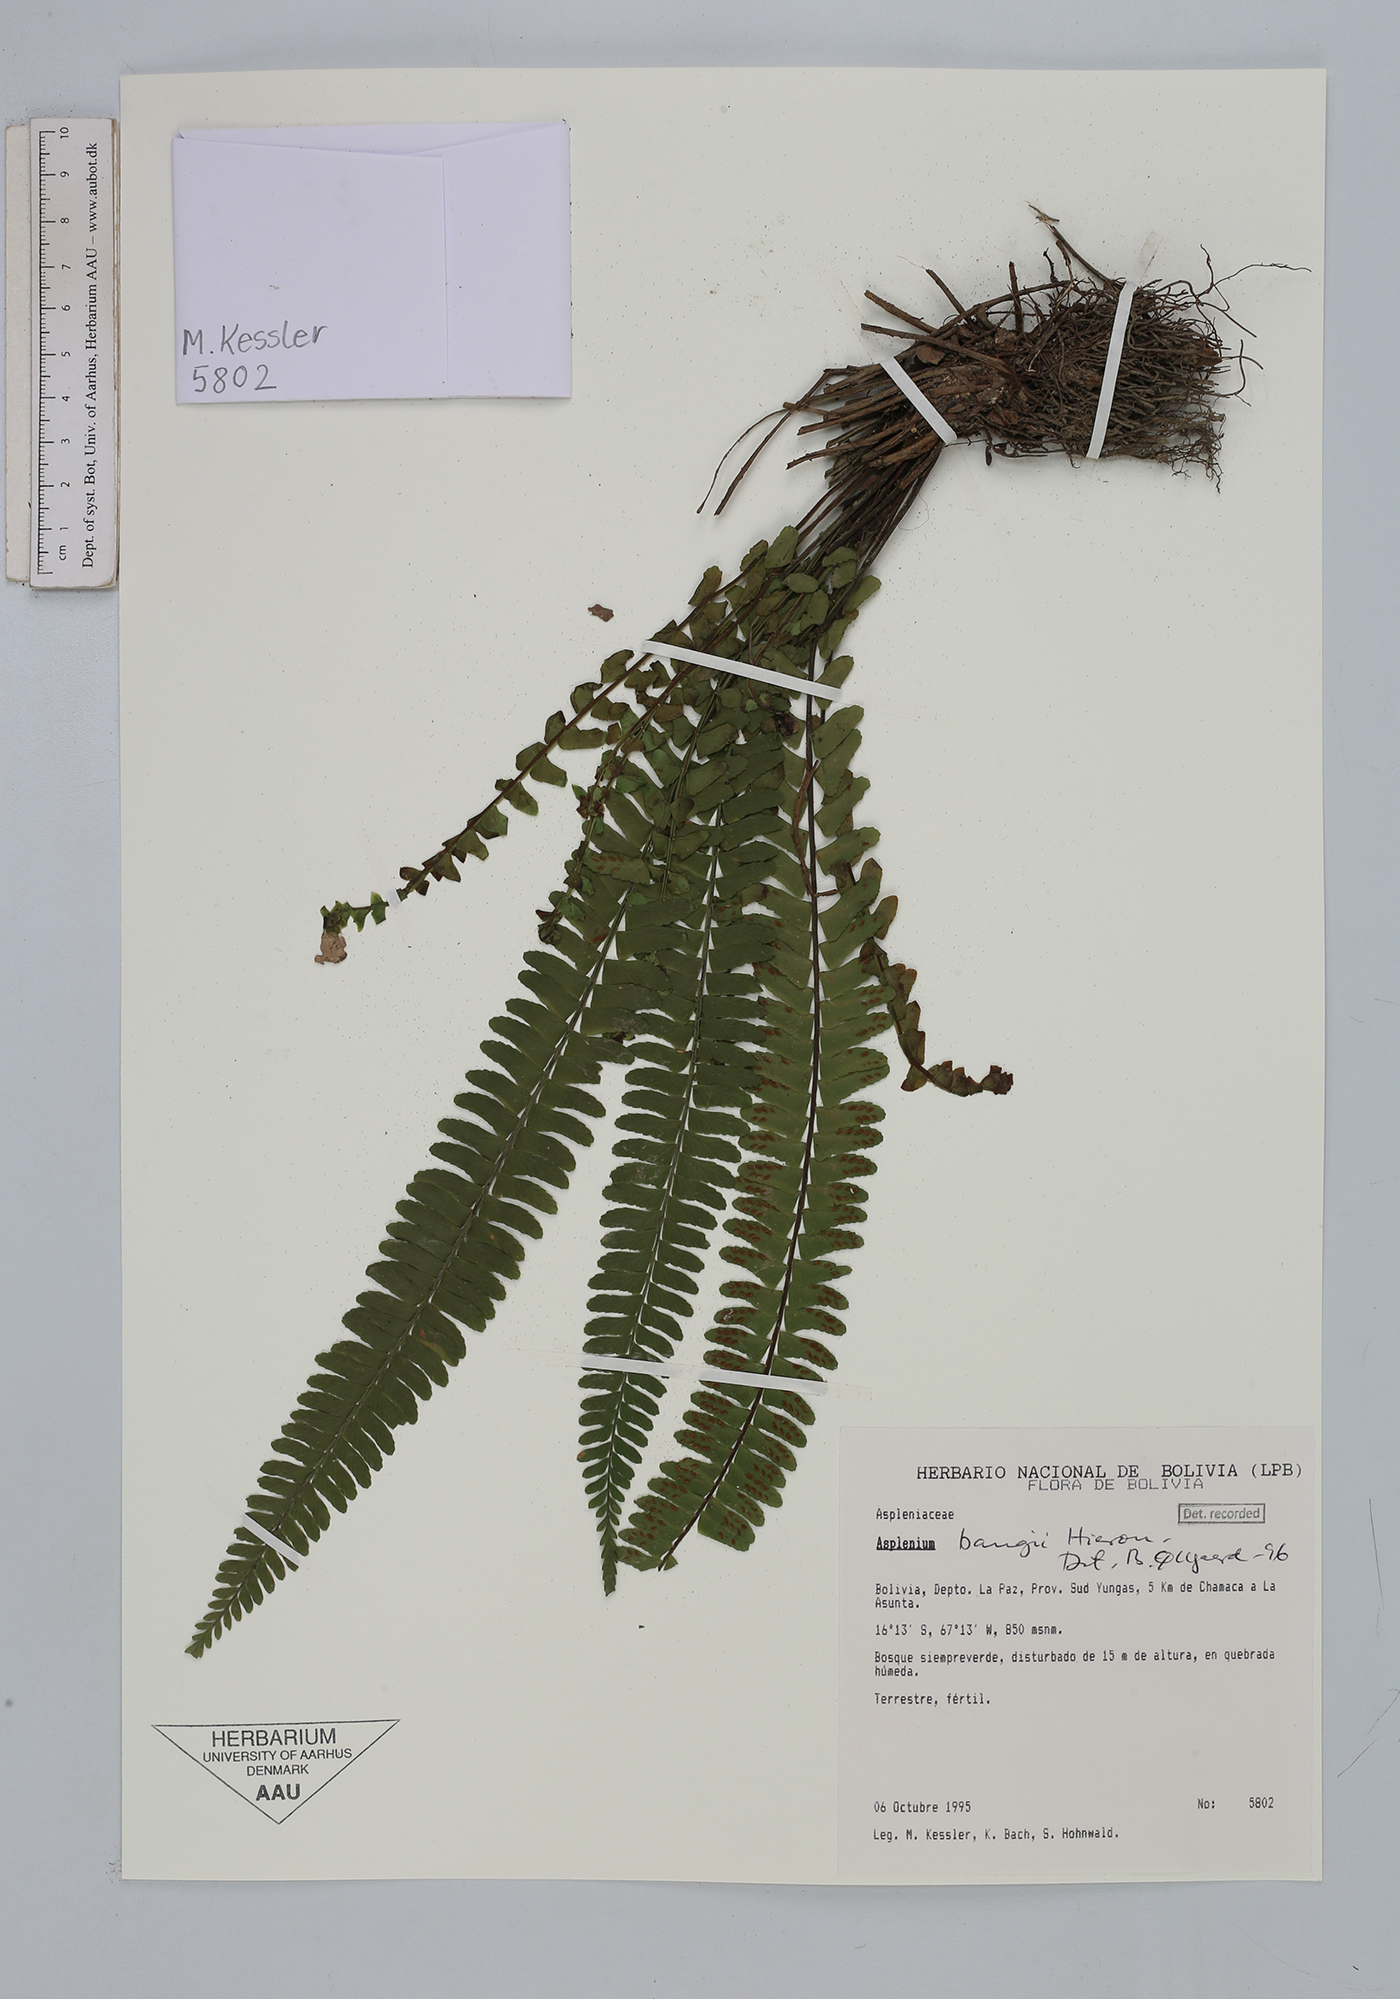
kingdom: Plantae
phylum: Tracheophyta
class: Polypodiopsida
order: Polypodiales
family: Aspleniaceae
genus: Asplenium
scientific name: Asplenium bangii
